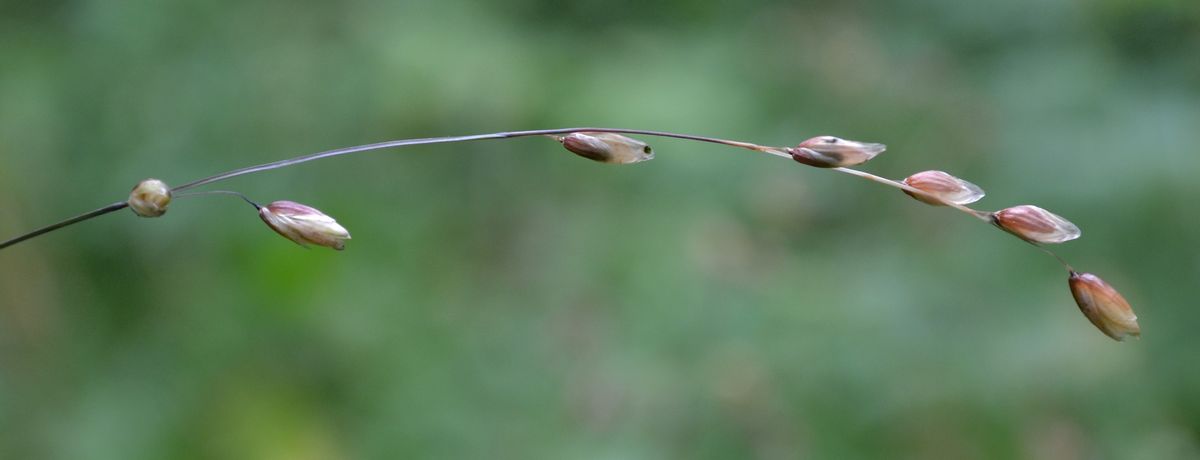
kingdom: Plantae
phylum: Tracheophyta
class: Liliopsida
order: Poales
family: Poaceae
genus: Melica
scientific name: Melica nutans
